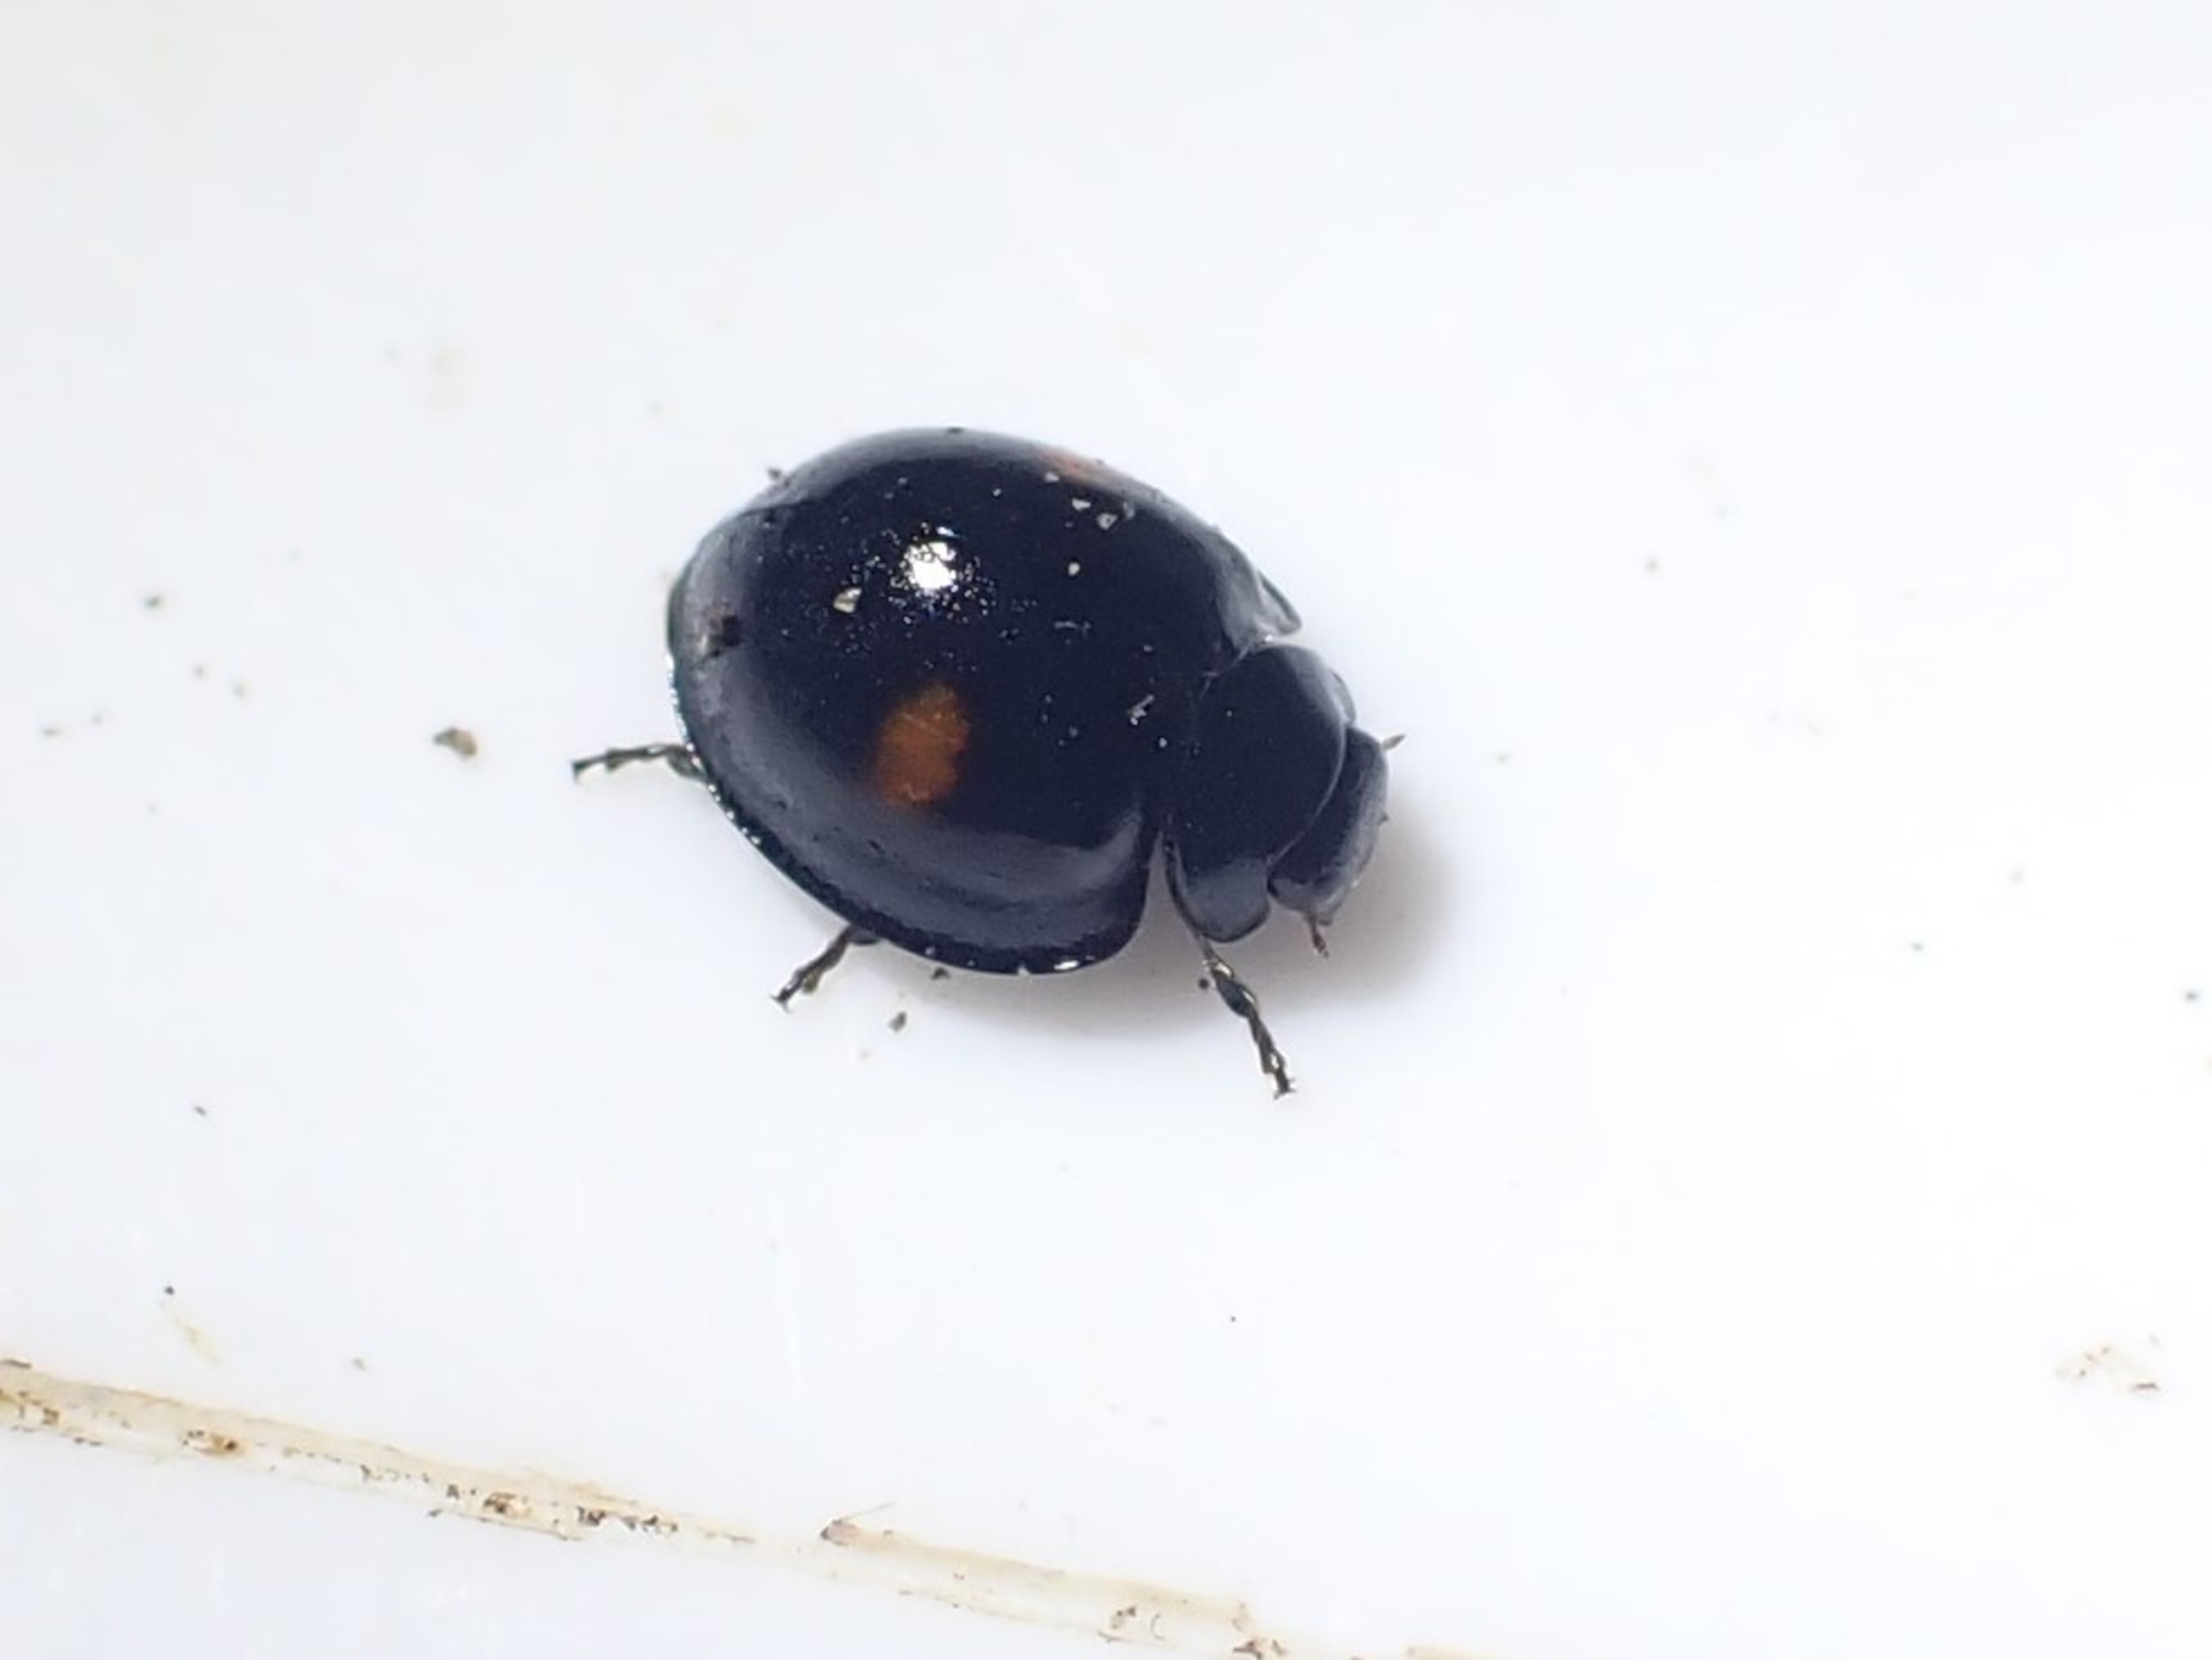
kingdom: Animalia
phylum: Arthropoda
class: Insecta
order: Coleoptera
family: Coccinellidae
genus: Chilocorus
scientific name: Chilocorus renipustulatus
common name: Askemariehøne
